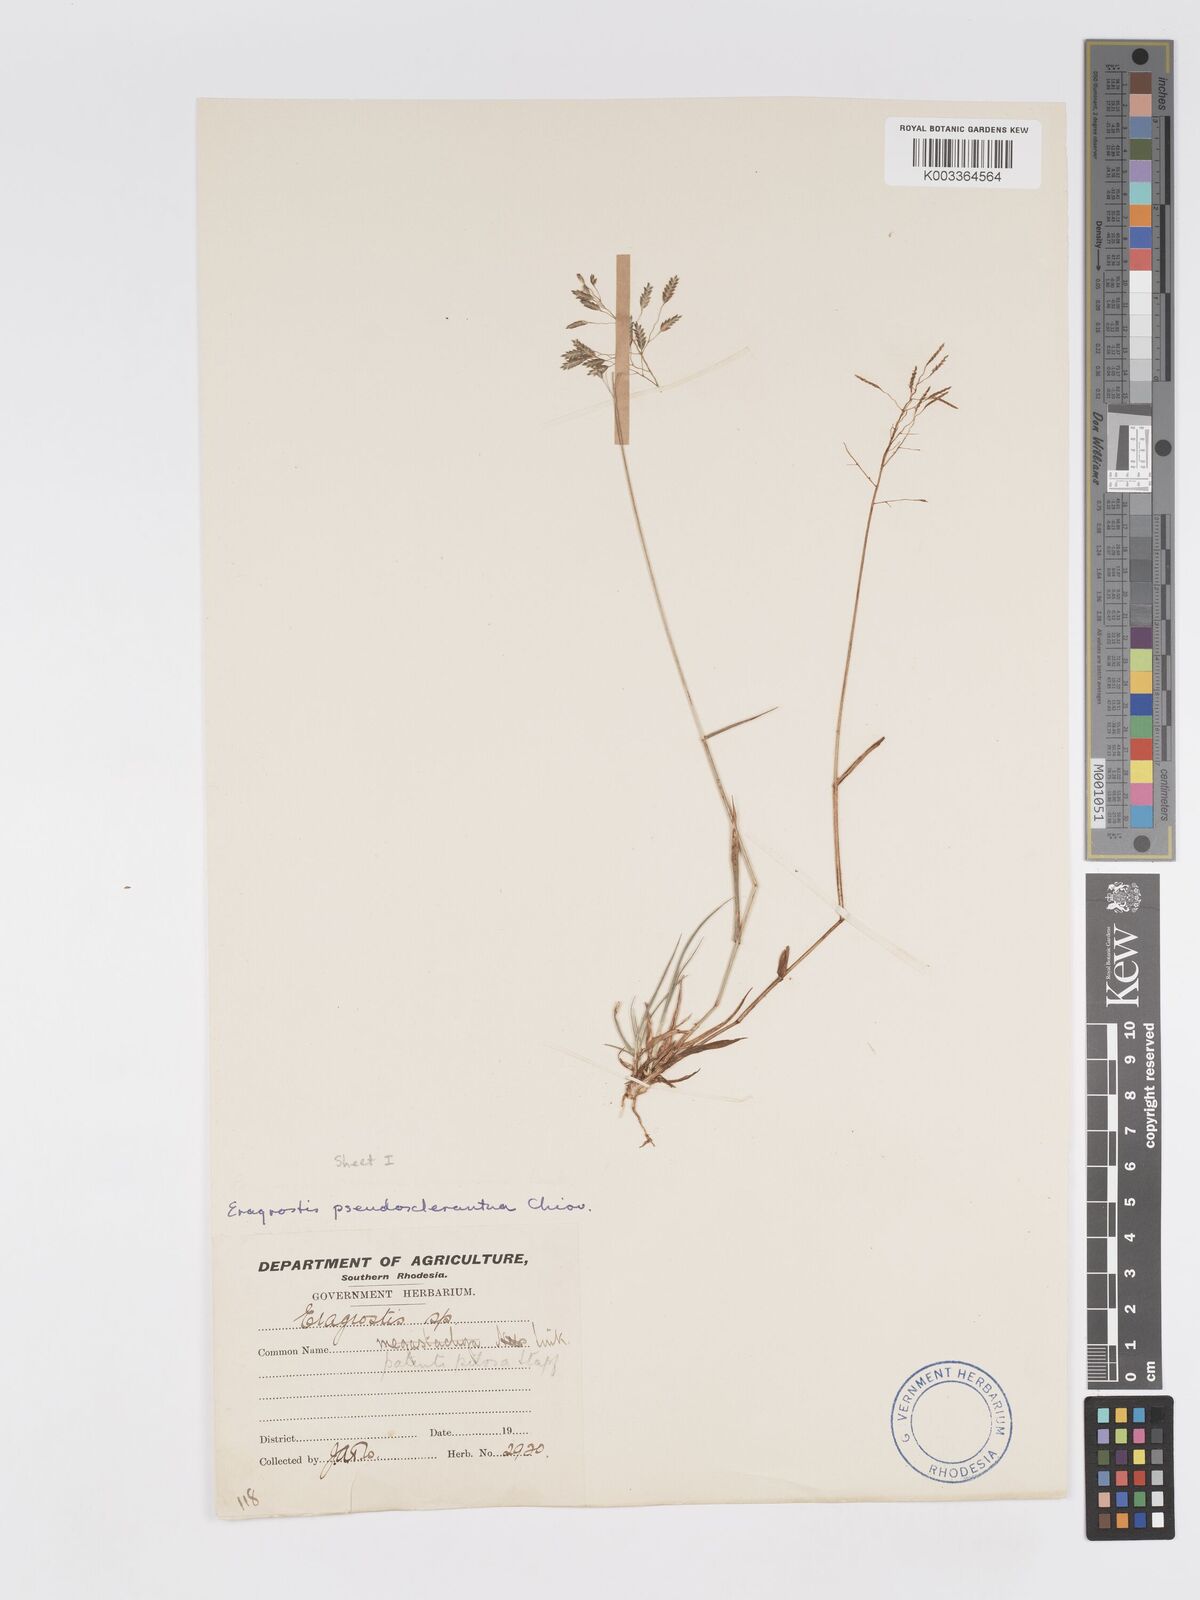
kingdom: Plantae
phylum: Tracheophyta
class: Liliopsida
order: Poales
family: Poaceae
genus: Eragrostis
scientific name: Eragrostis patentipilosa
